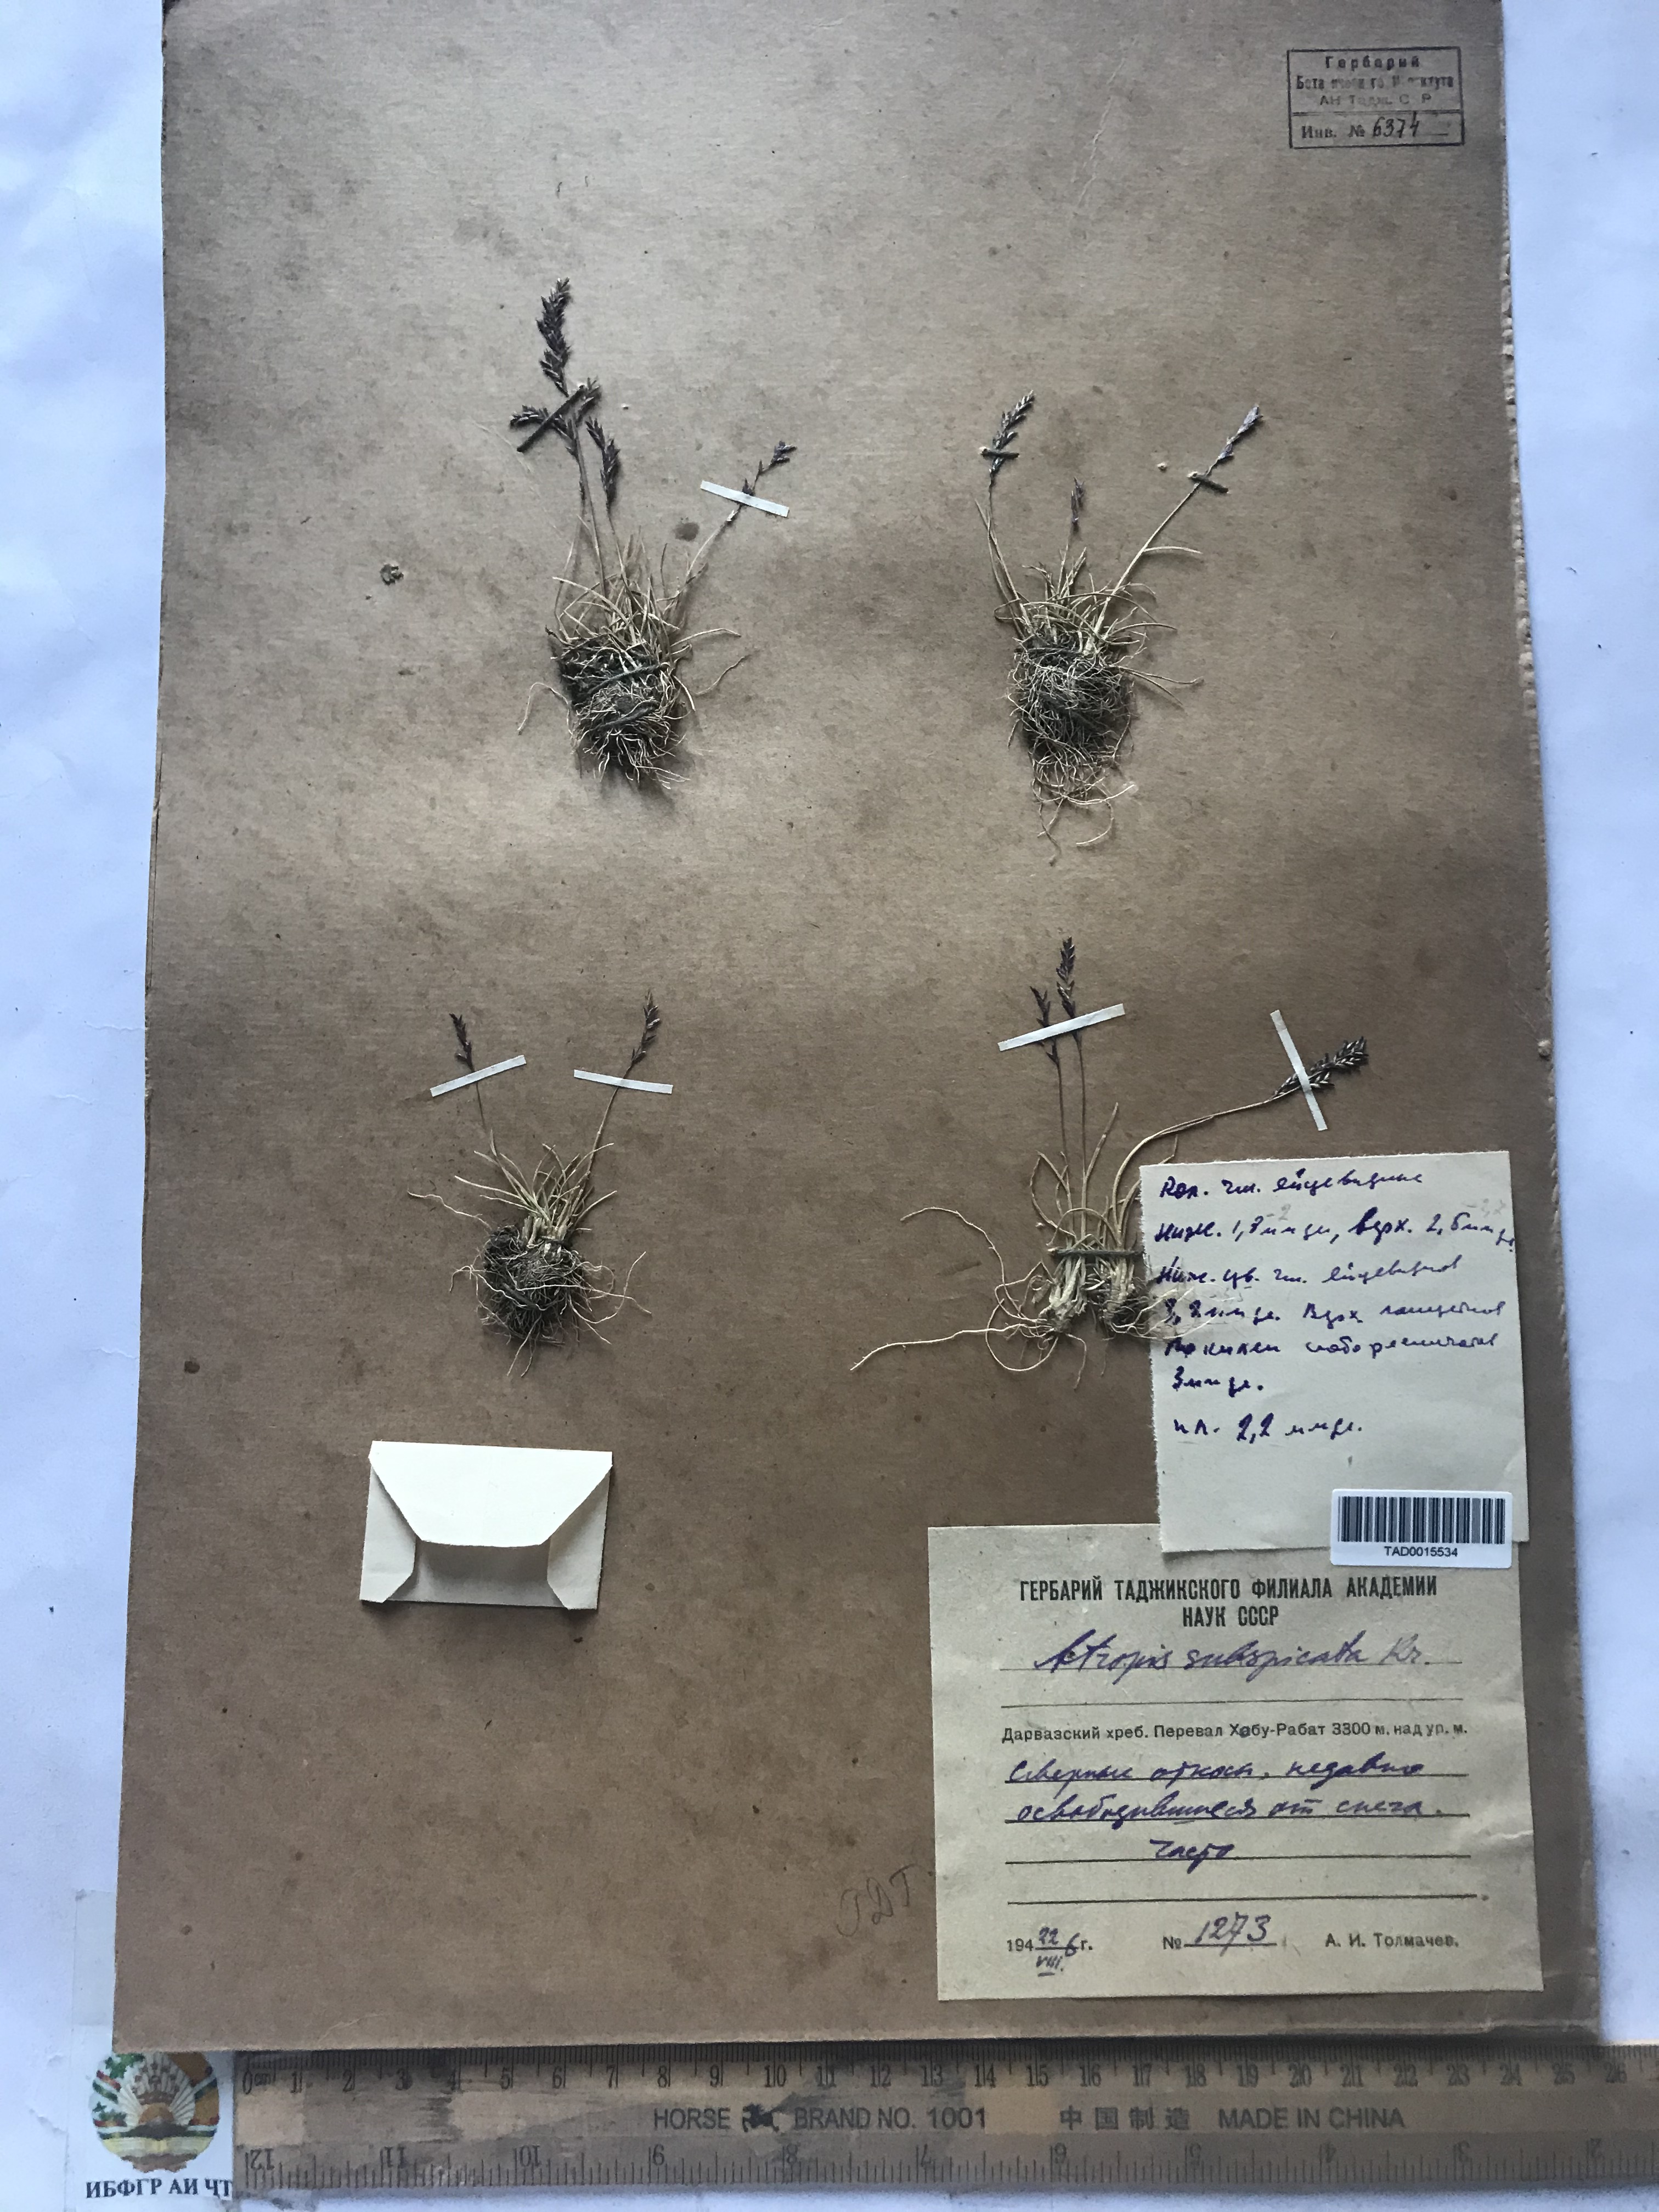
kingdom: Plantae
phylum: Tracheophyta
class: Liliopsida
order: Poales
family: Poaceae
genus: Puccinellia
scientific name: Puccinellia subspicata
